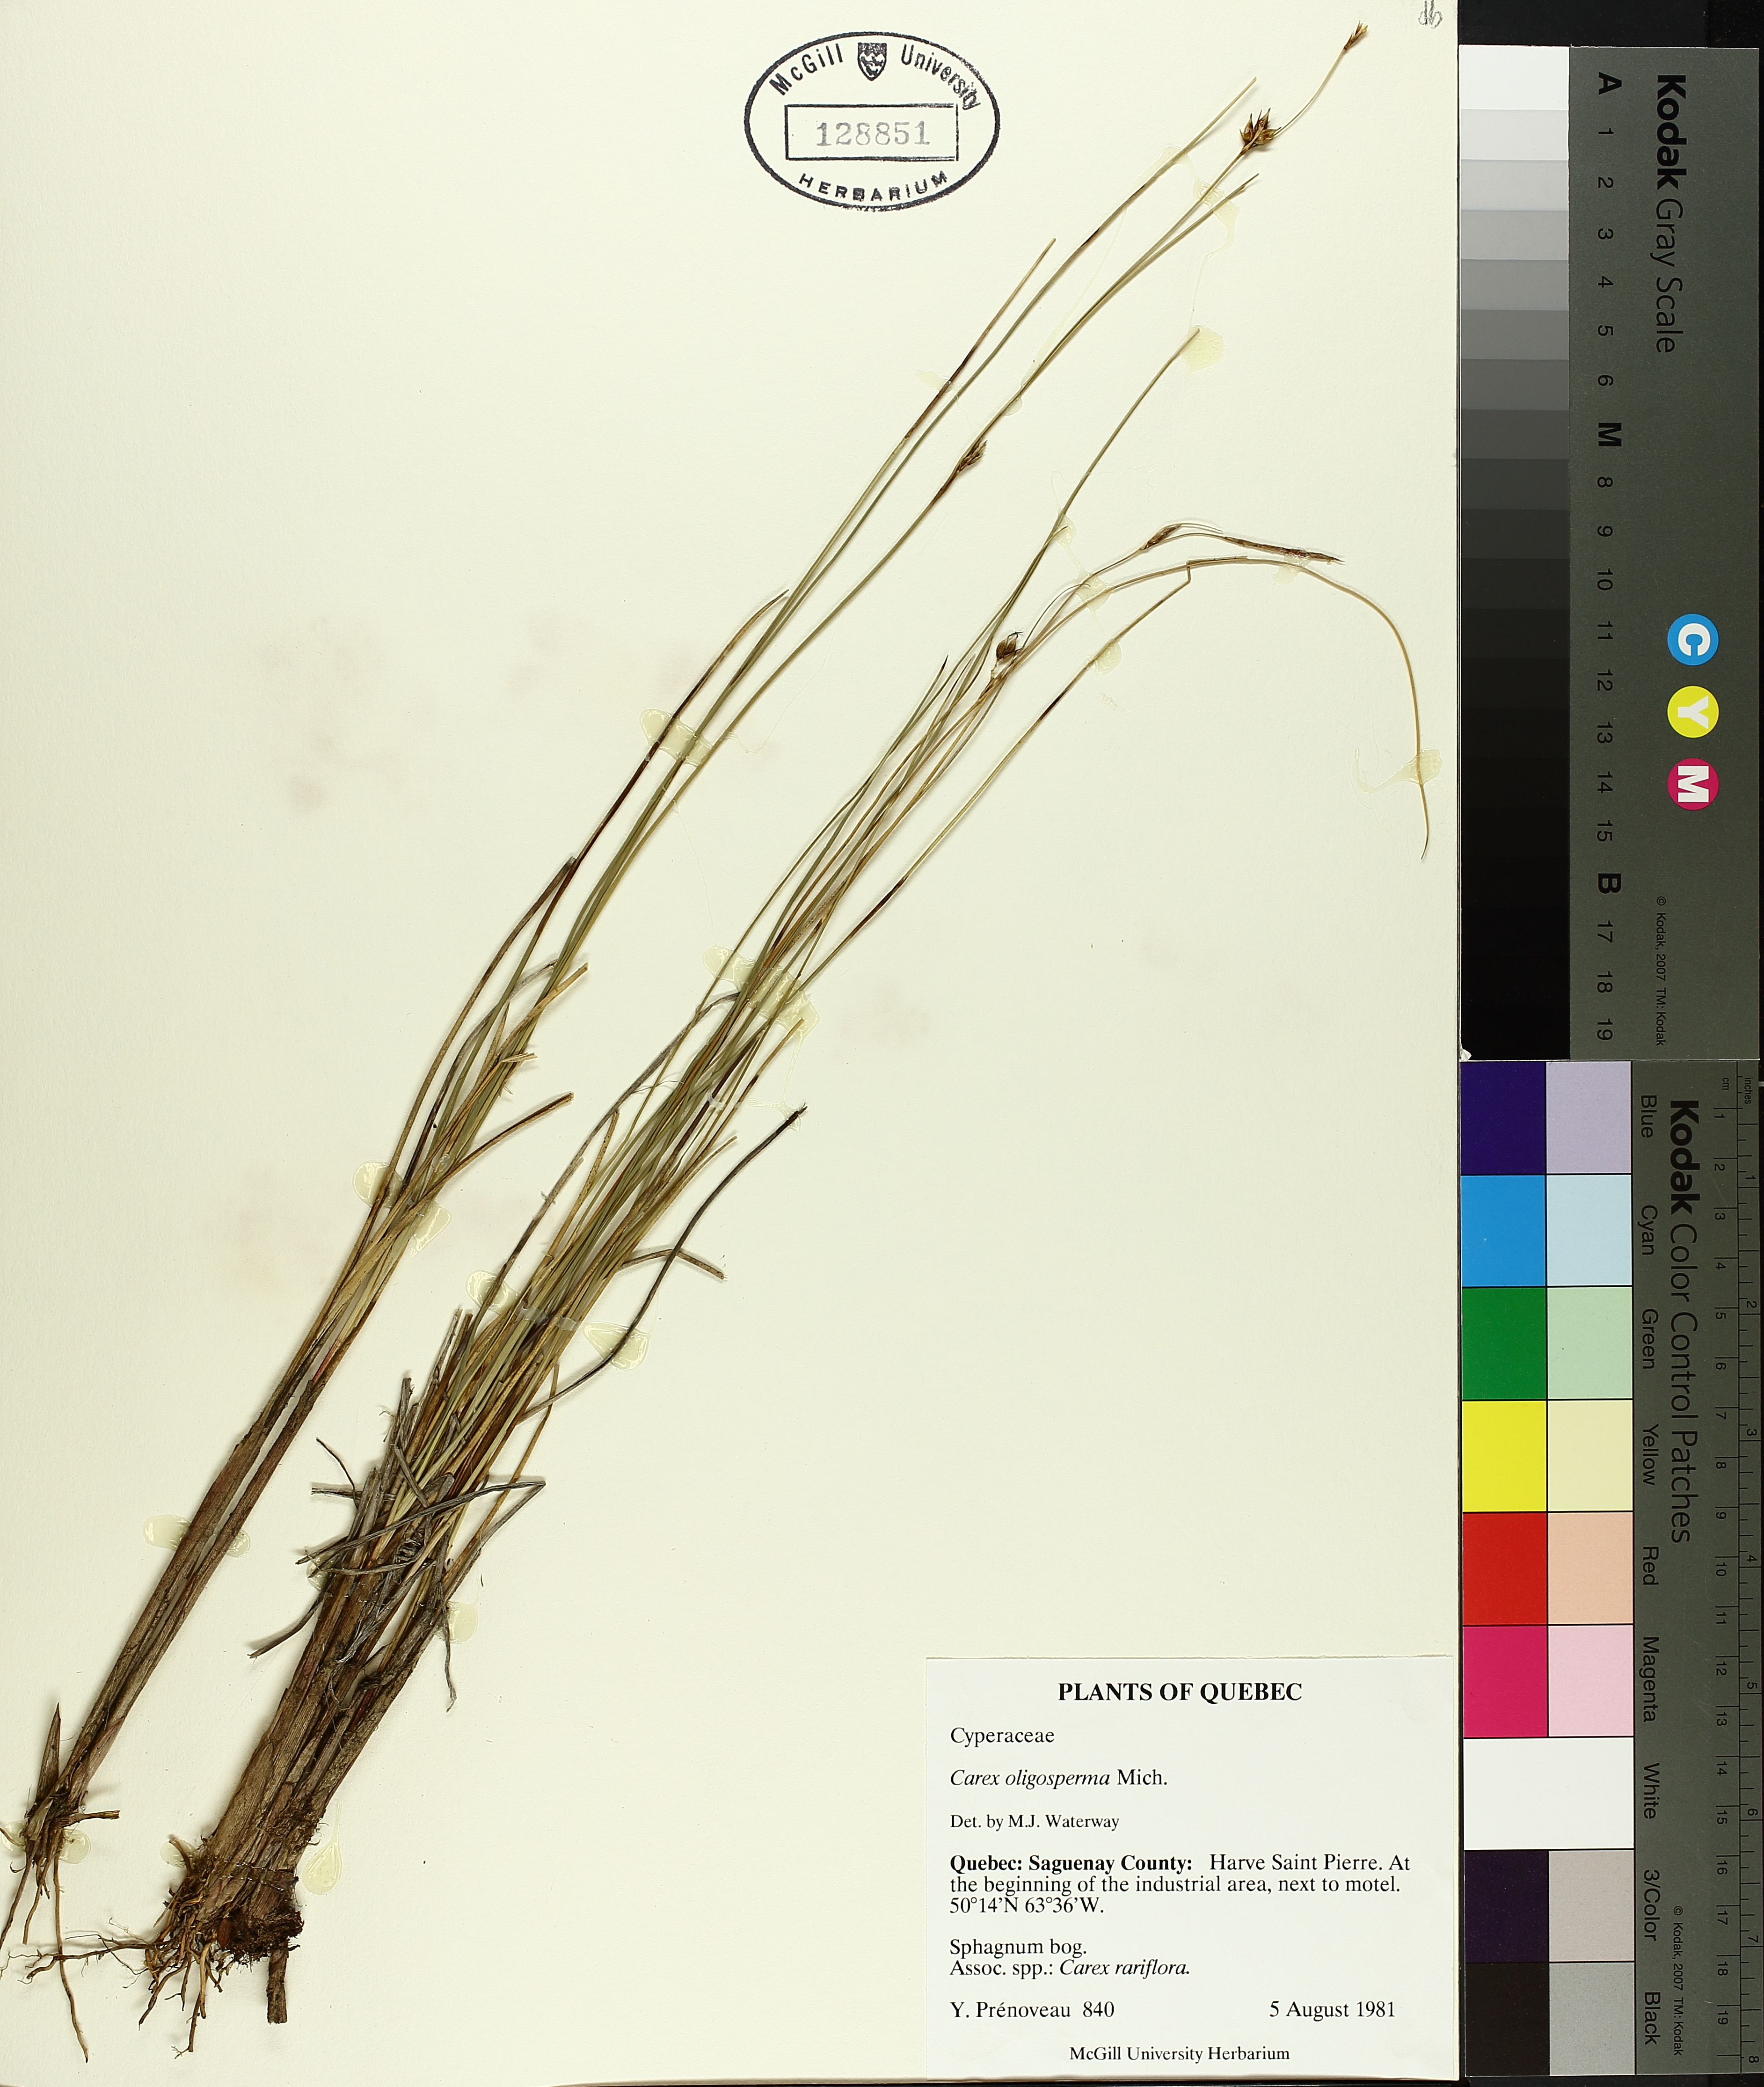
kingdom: Plantae
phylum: Tracheophyta
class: Liliopsida
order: Poales
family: Cyperaceae
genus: Carex
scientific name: Carex oligosperma
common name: Few-seed sedge
